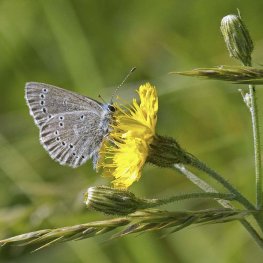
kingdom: Animalia
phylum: Arthropoda
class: Insecta
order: Lepidoptera
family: Lycaenidae
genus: Glaucopsyche
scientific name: Glaucopsyche lygdamus
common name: Silvery Blue
